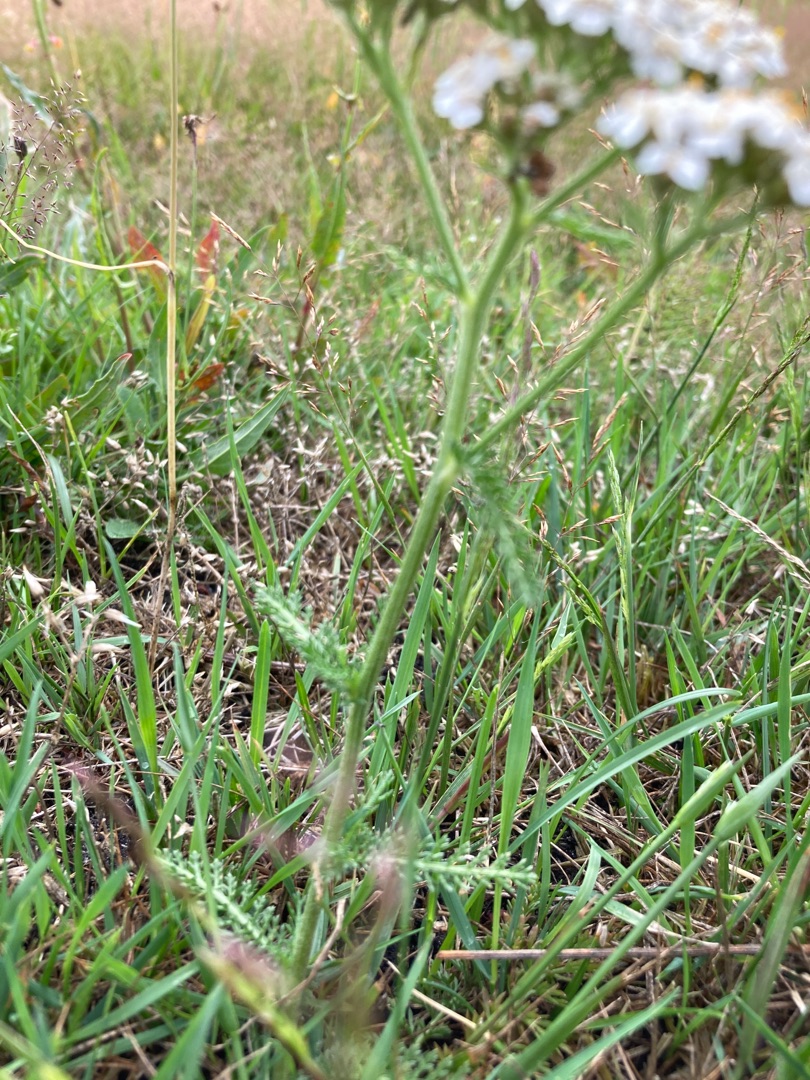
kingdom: Plantae
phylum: Tracheophyta
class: Magnoliopsida
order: Asterales
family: Asteraceae
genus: Achillea
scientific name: Achillea millefolium
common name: Almindelig røllike
